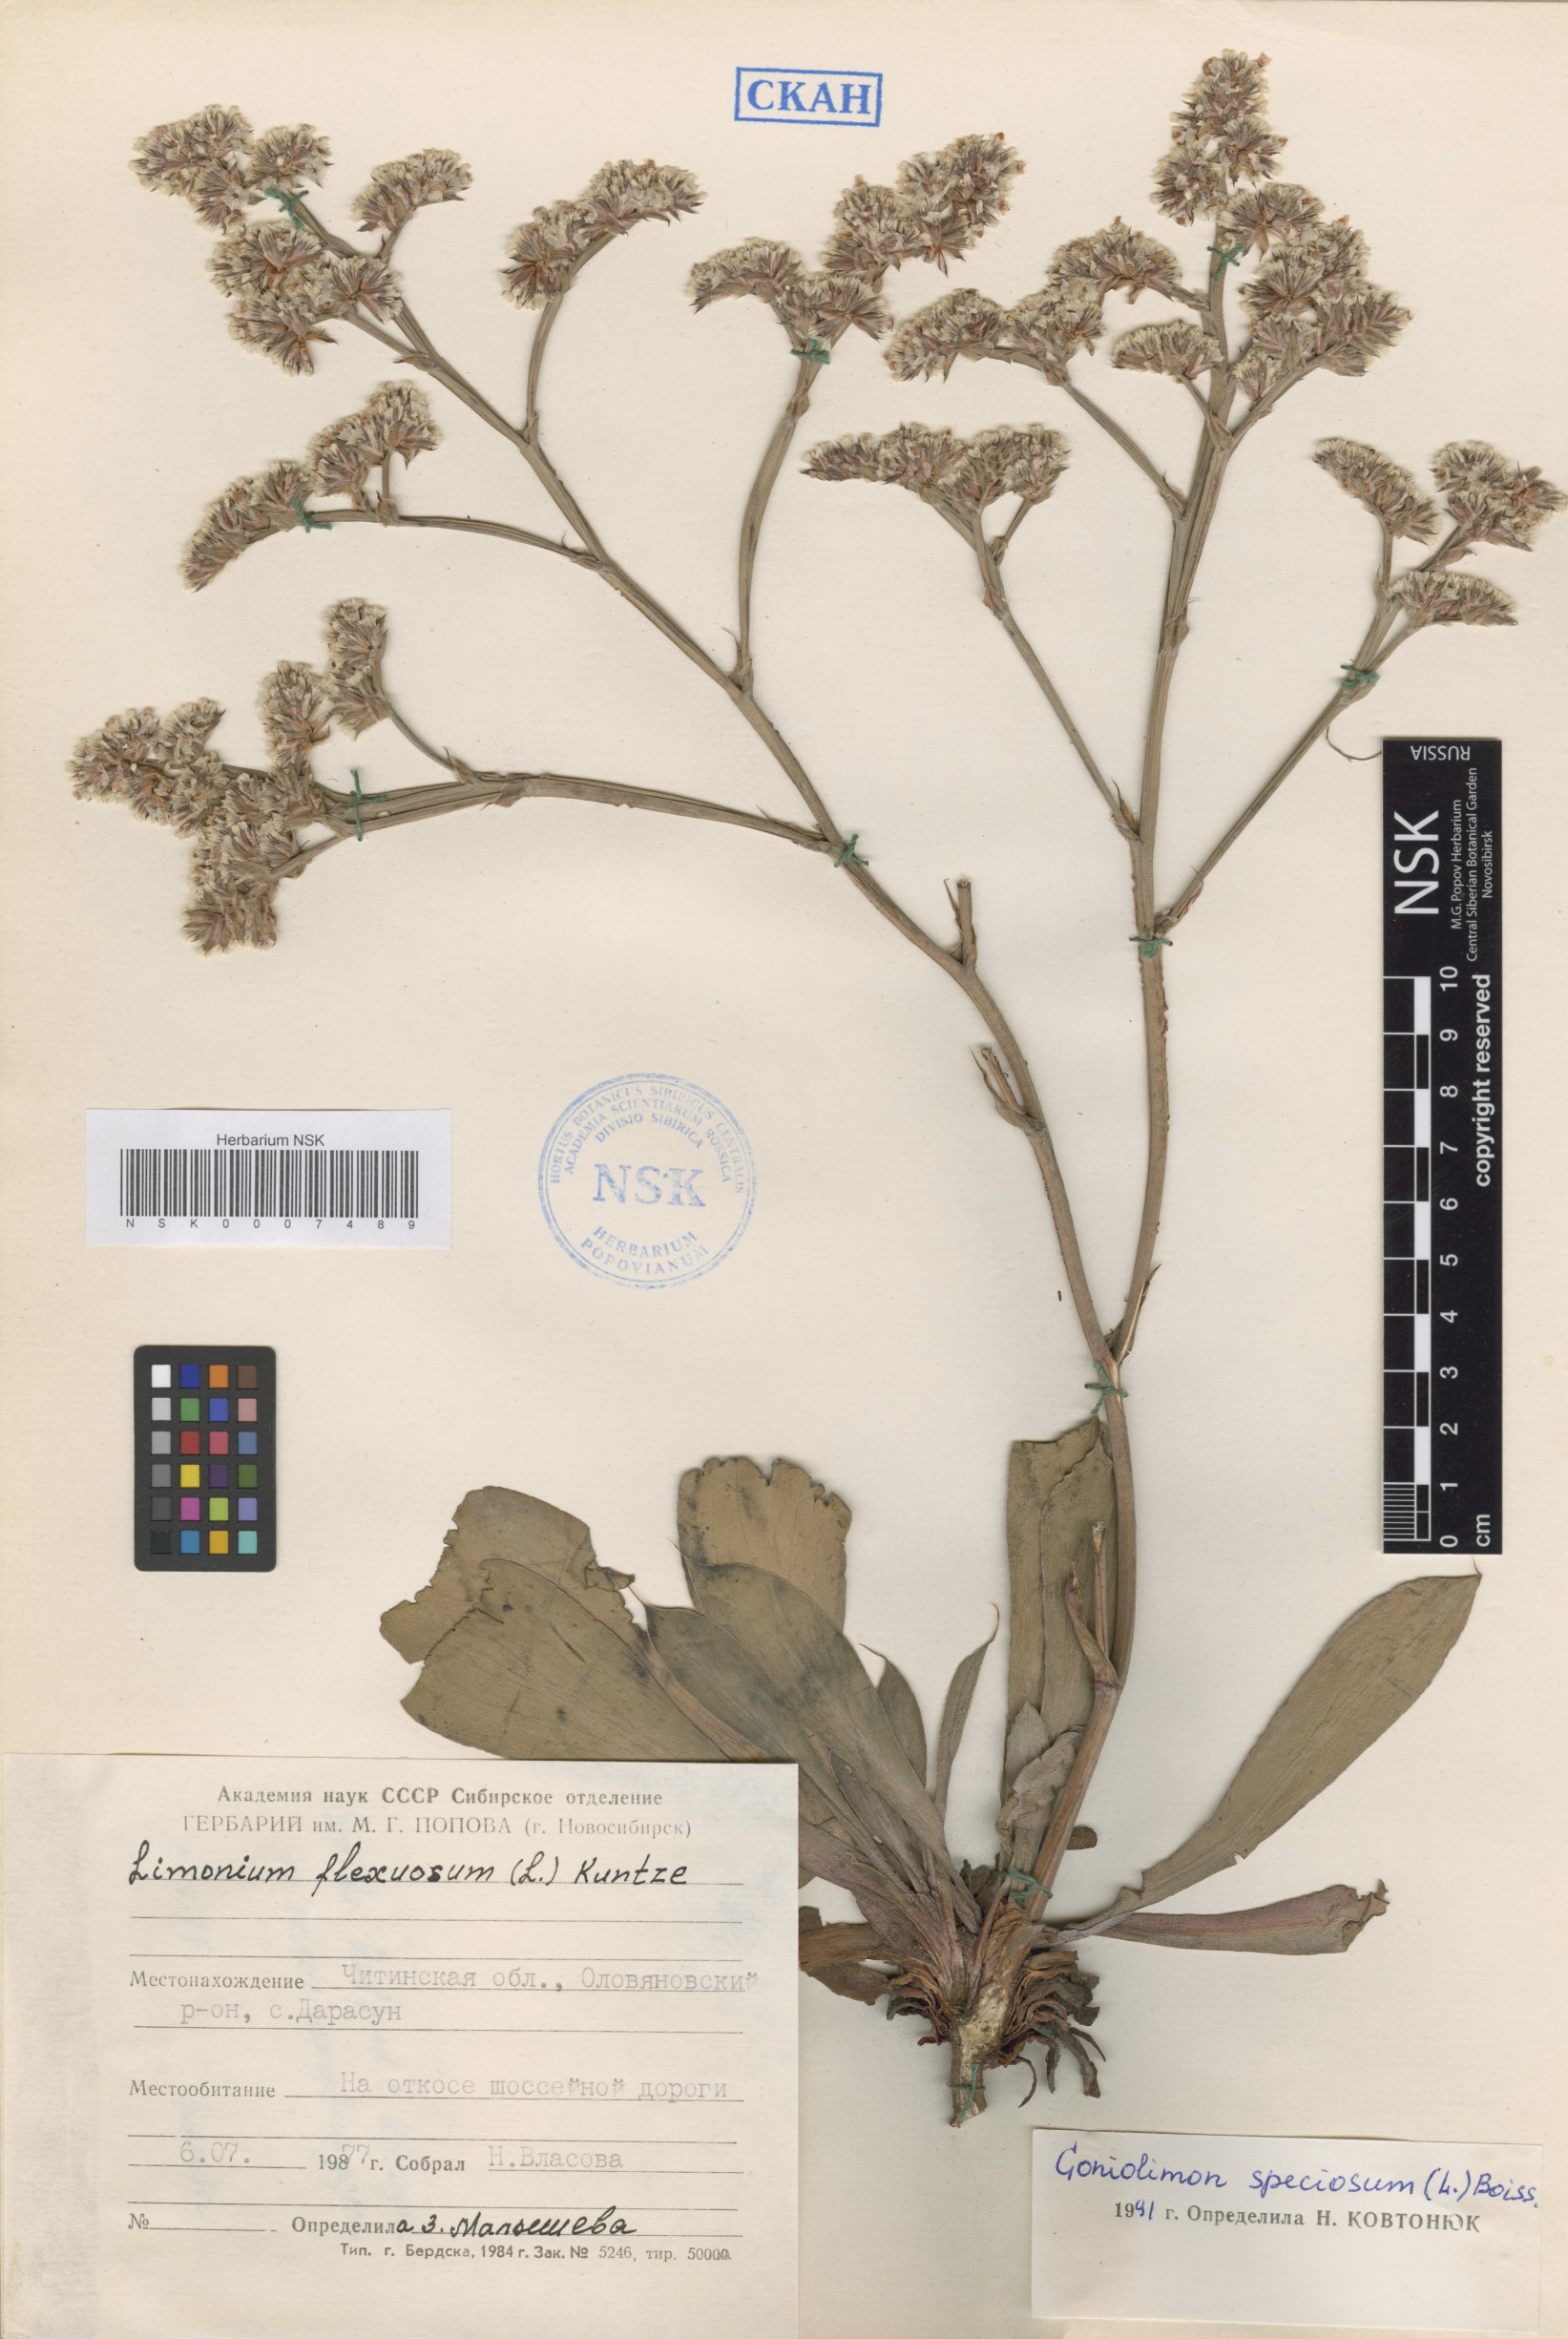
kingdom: Plantae
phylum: Tracheophyta
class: Magnoliopsida
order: Caryophyllales
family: Plumbaginaceae
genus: Goniolimon
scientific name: Goniolimon speciosum
